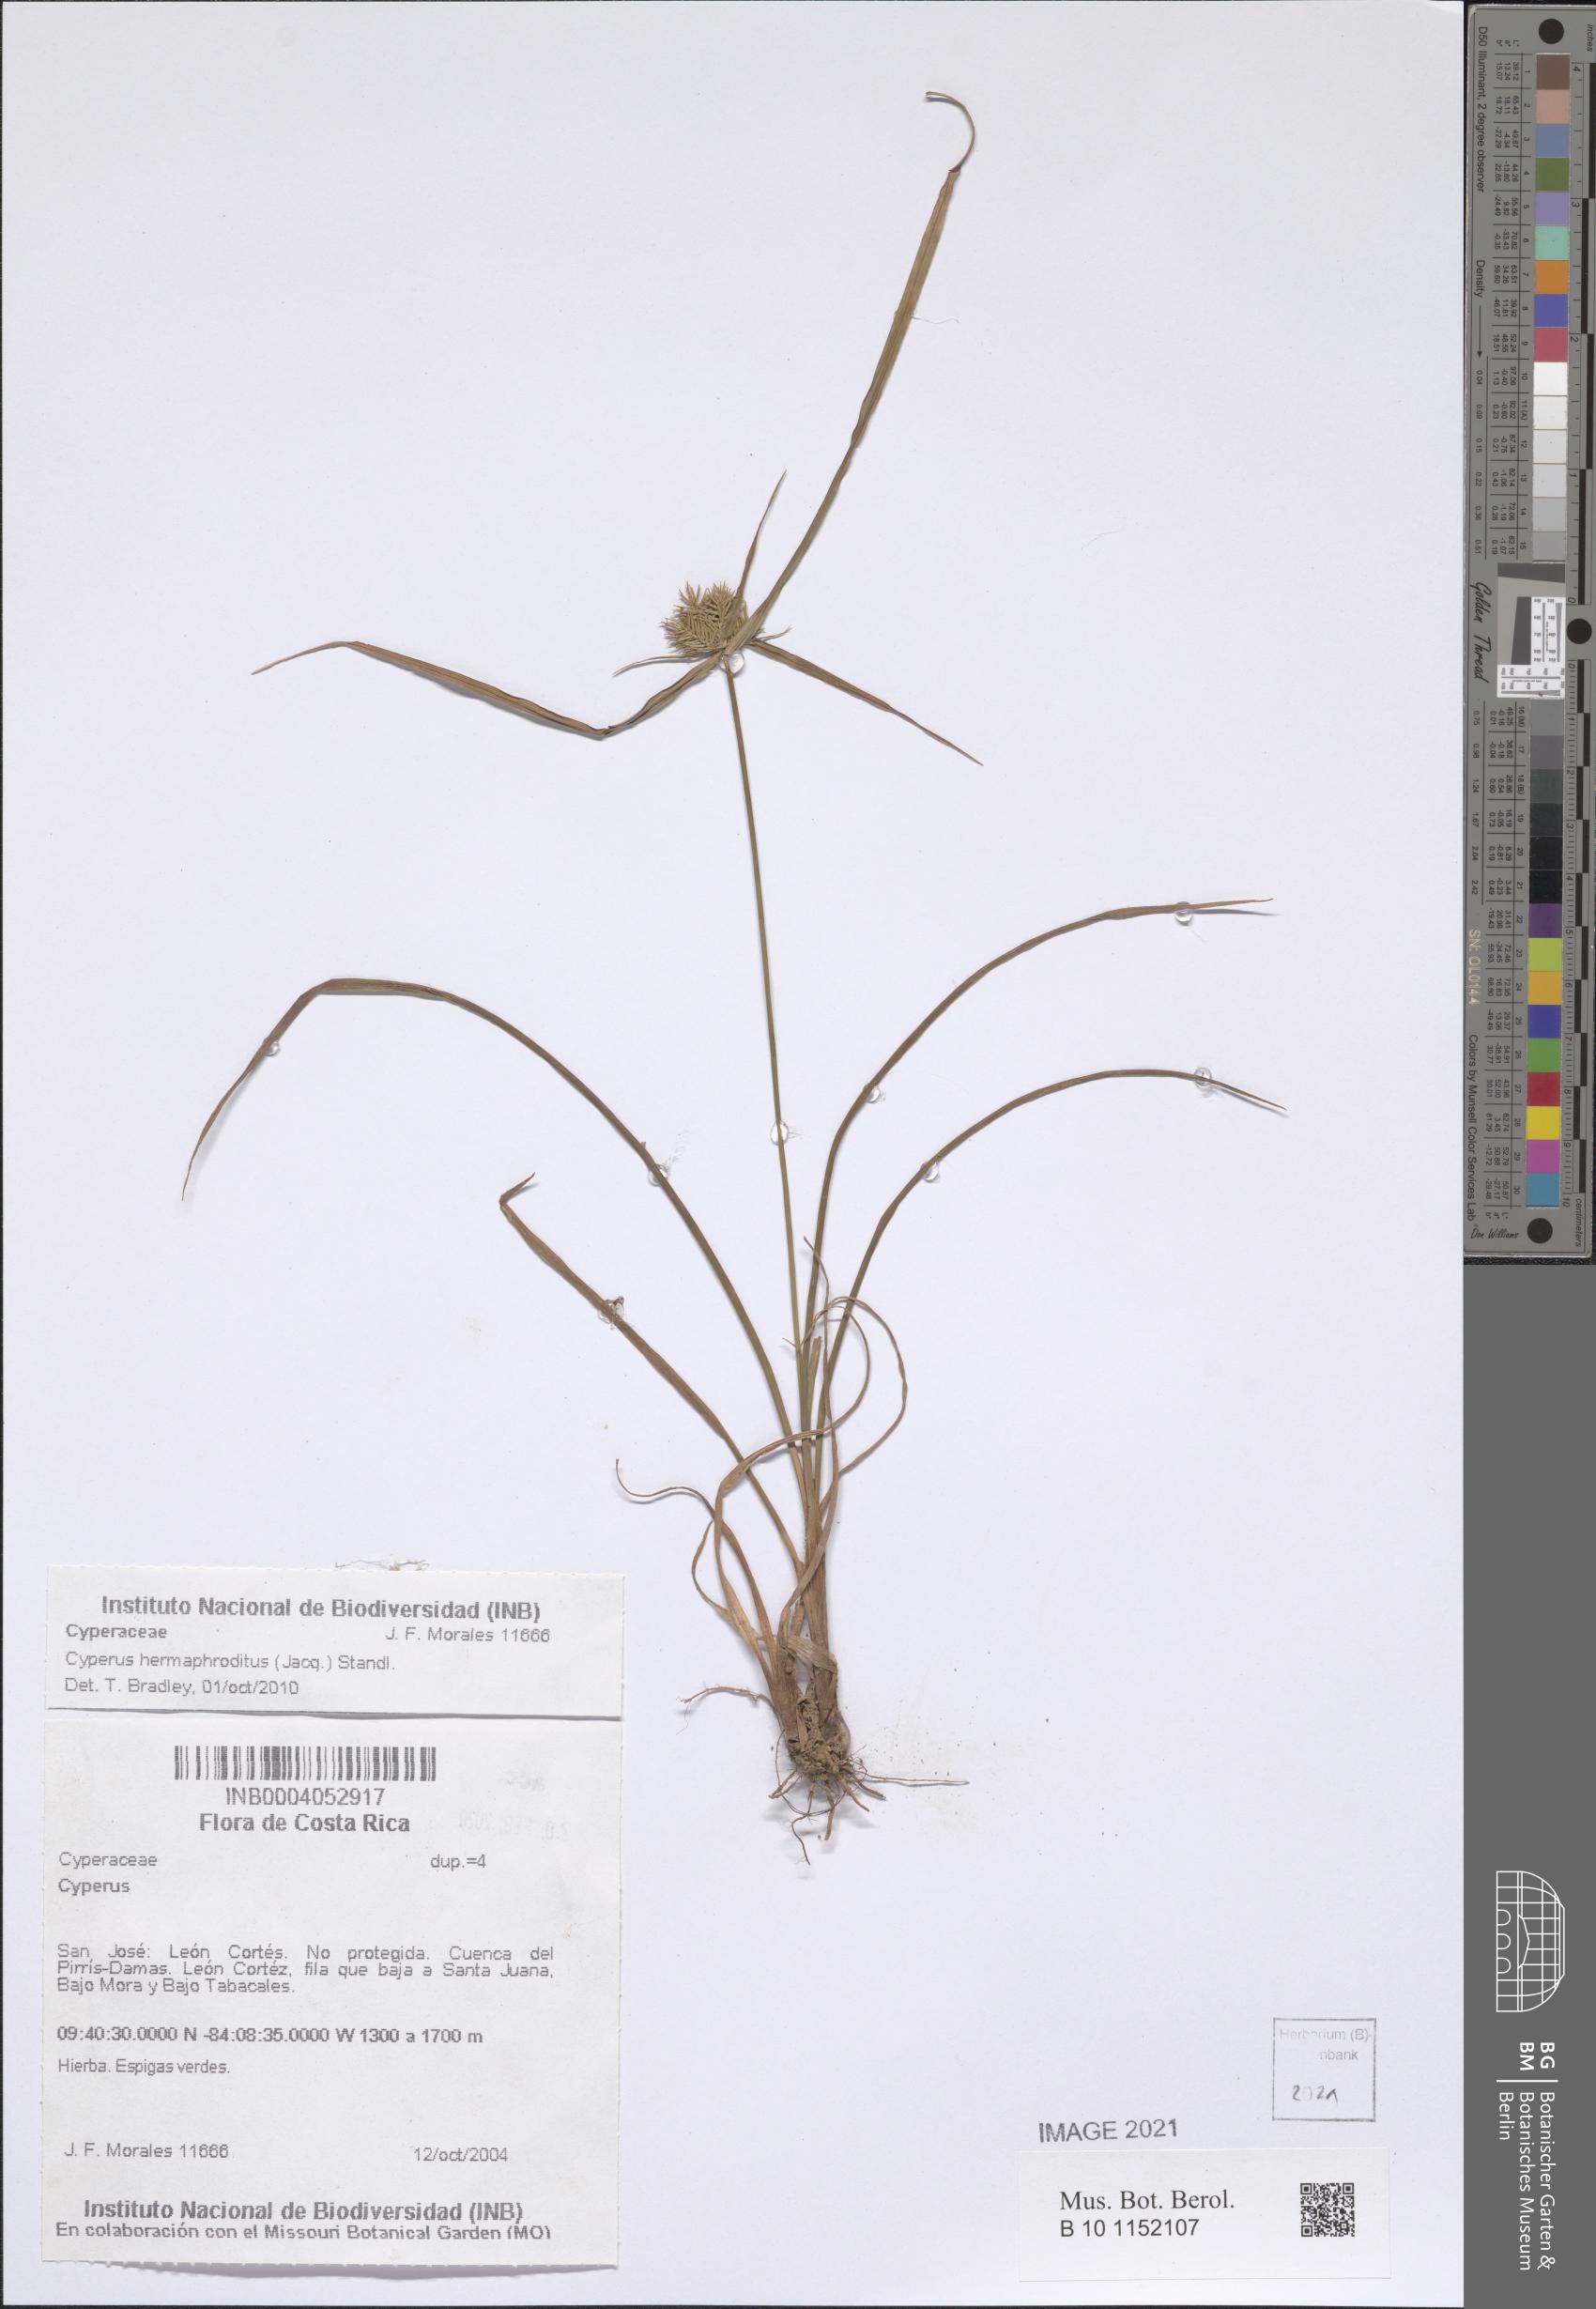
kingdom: Plantae
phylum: Tracheophyta
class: Liliopsida
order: Poales
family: Cyperaceae
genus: Cyperus
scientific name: Cyperus hermaphroditus
